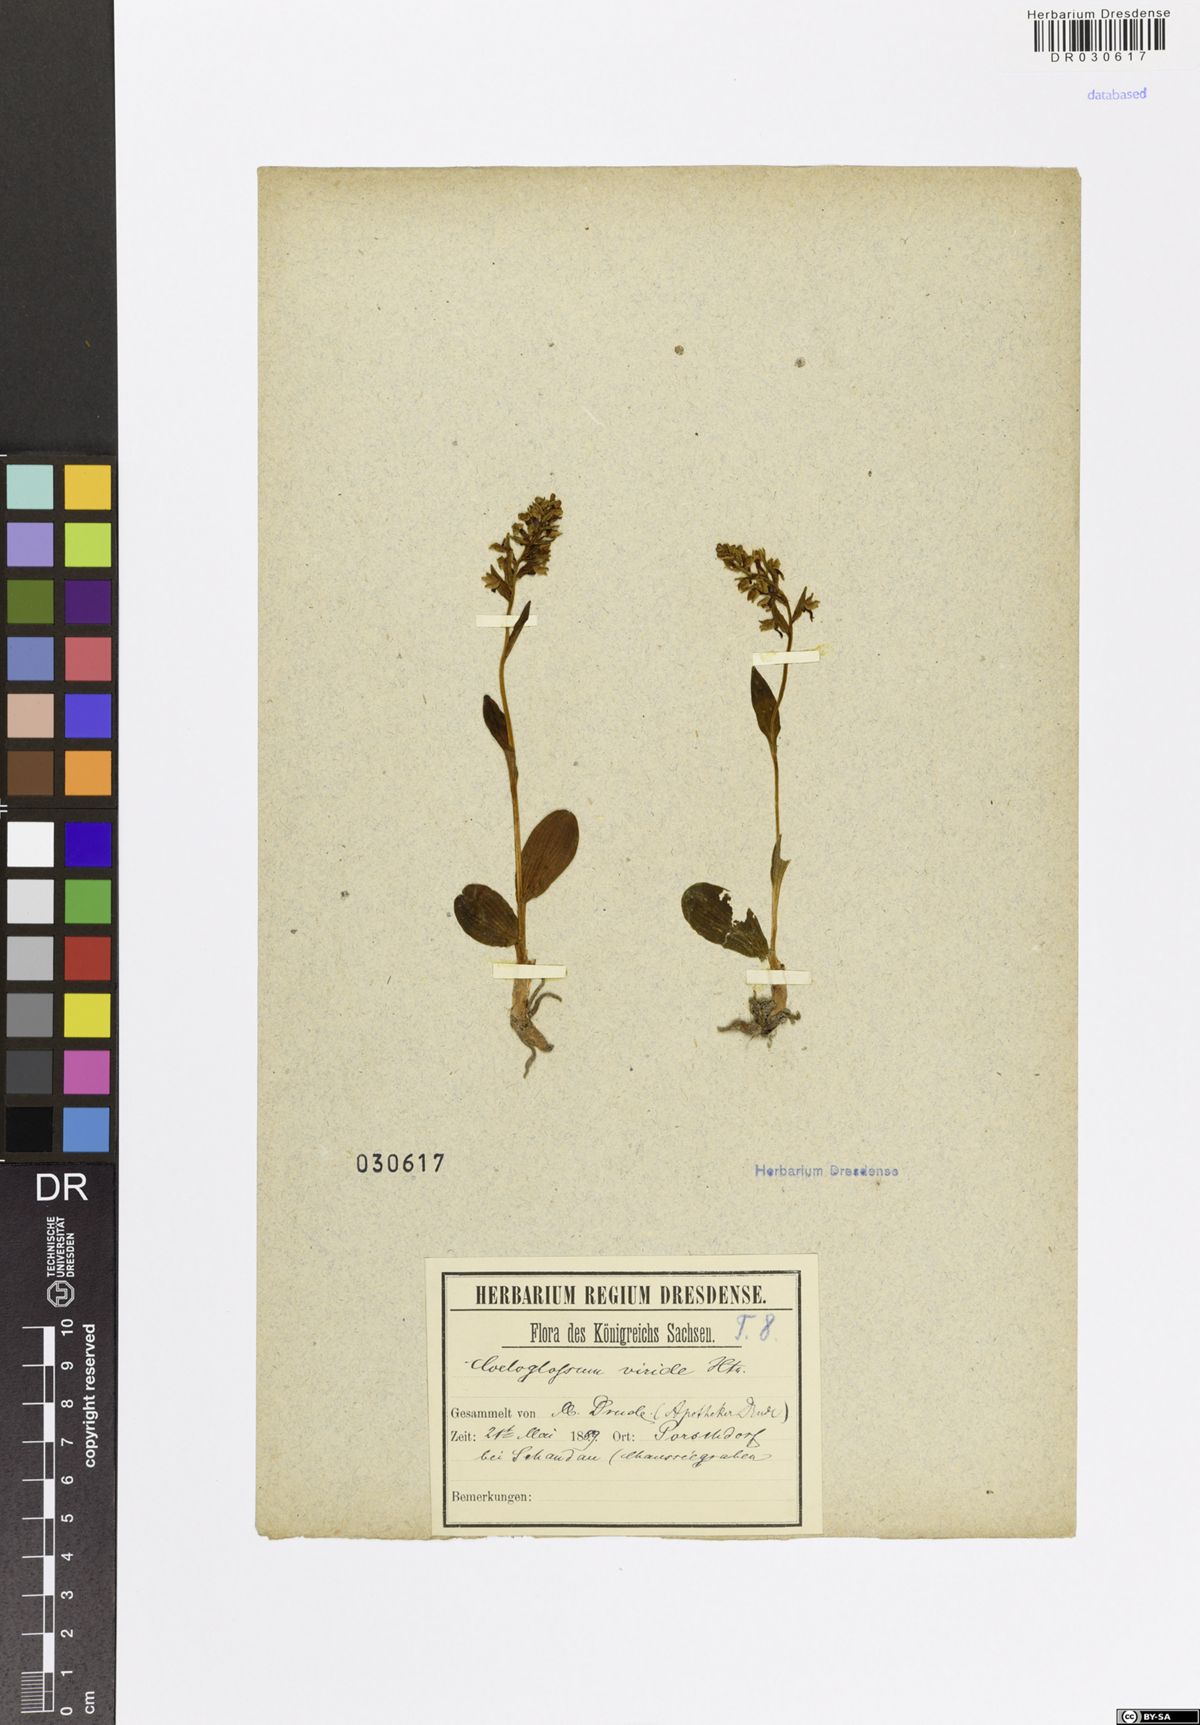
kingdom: Plantae
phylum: Tracheophyta
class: Liliopsida
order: Asparagales
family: Orchidaceae
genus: Dactylorhiza
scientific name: Dactylorhiza viridis
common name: Longbract frog orchid
